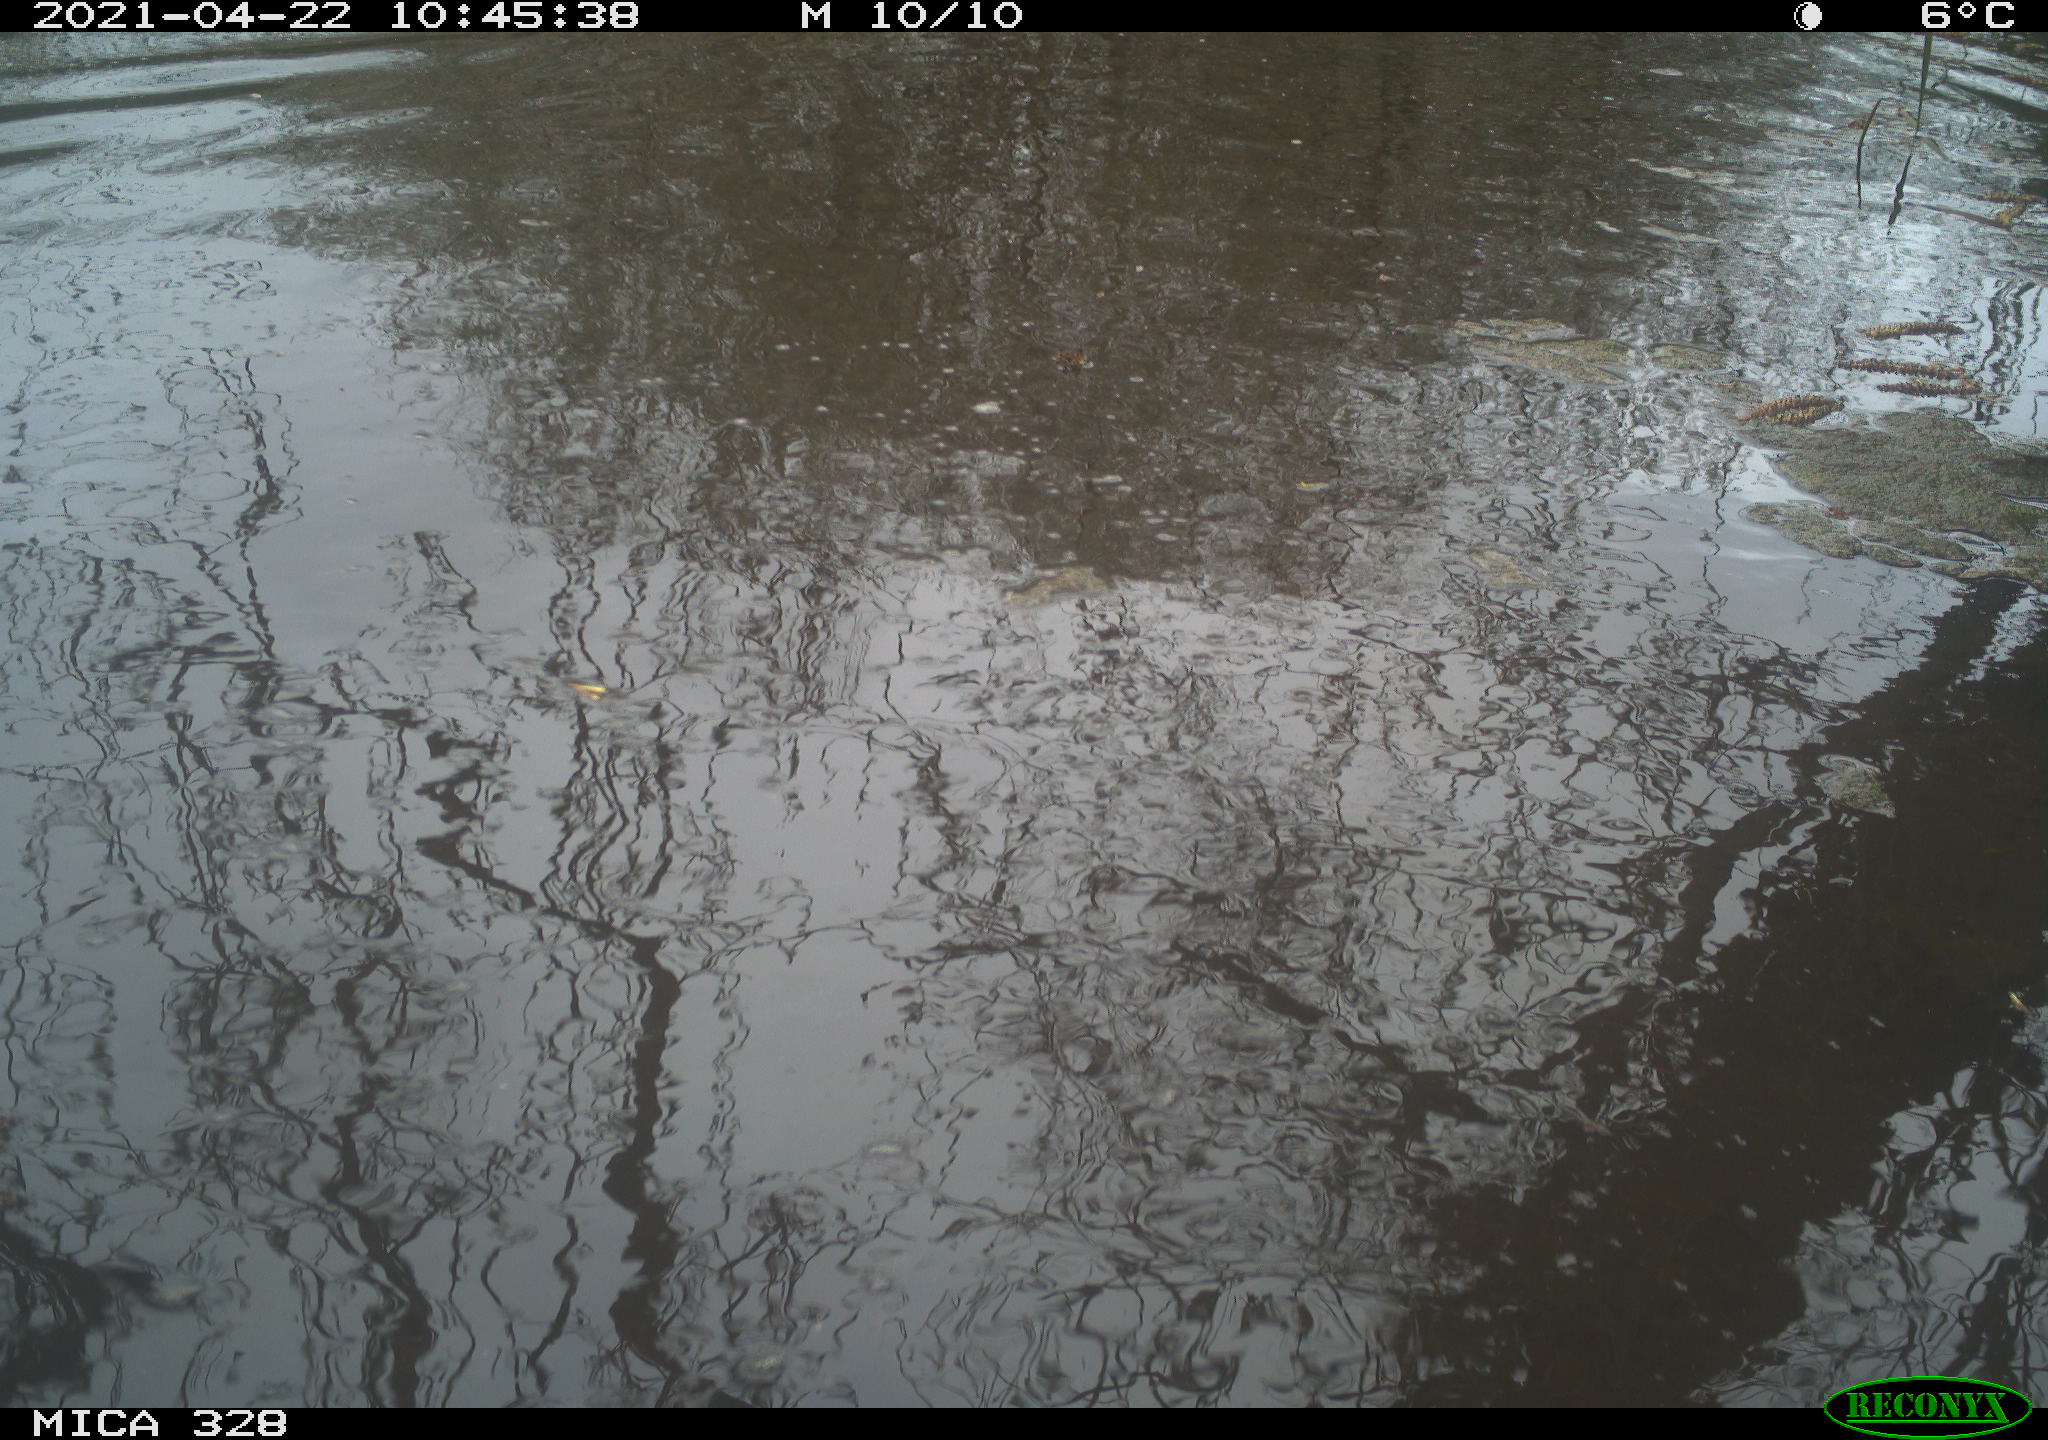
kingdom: Animalia
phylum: Chordata
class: Mammalia
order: Rodentia
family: Cricetidae
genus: Ondatra
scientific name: Ondatra zibethicus
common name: Muskrat
